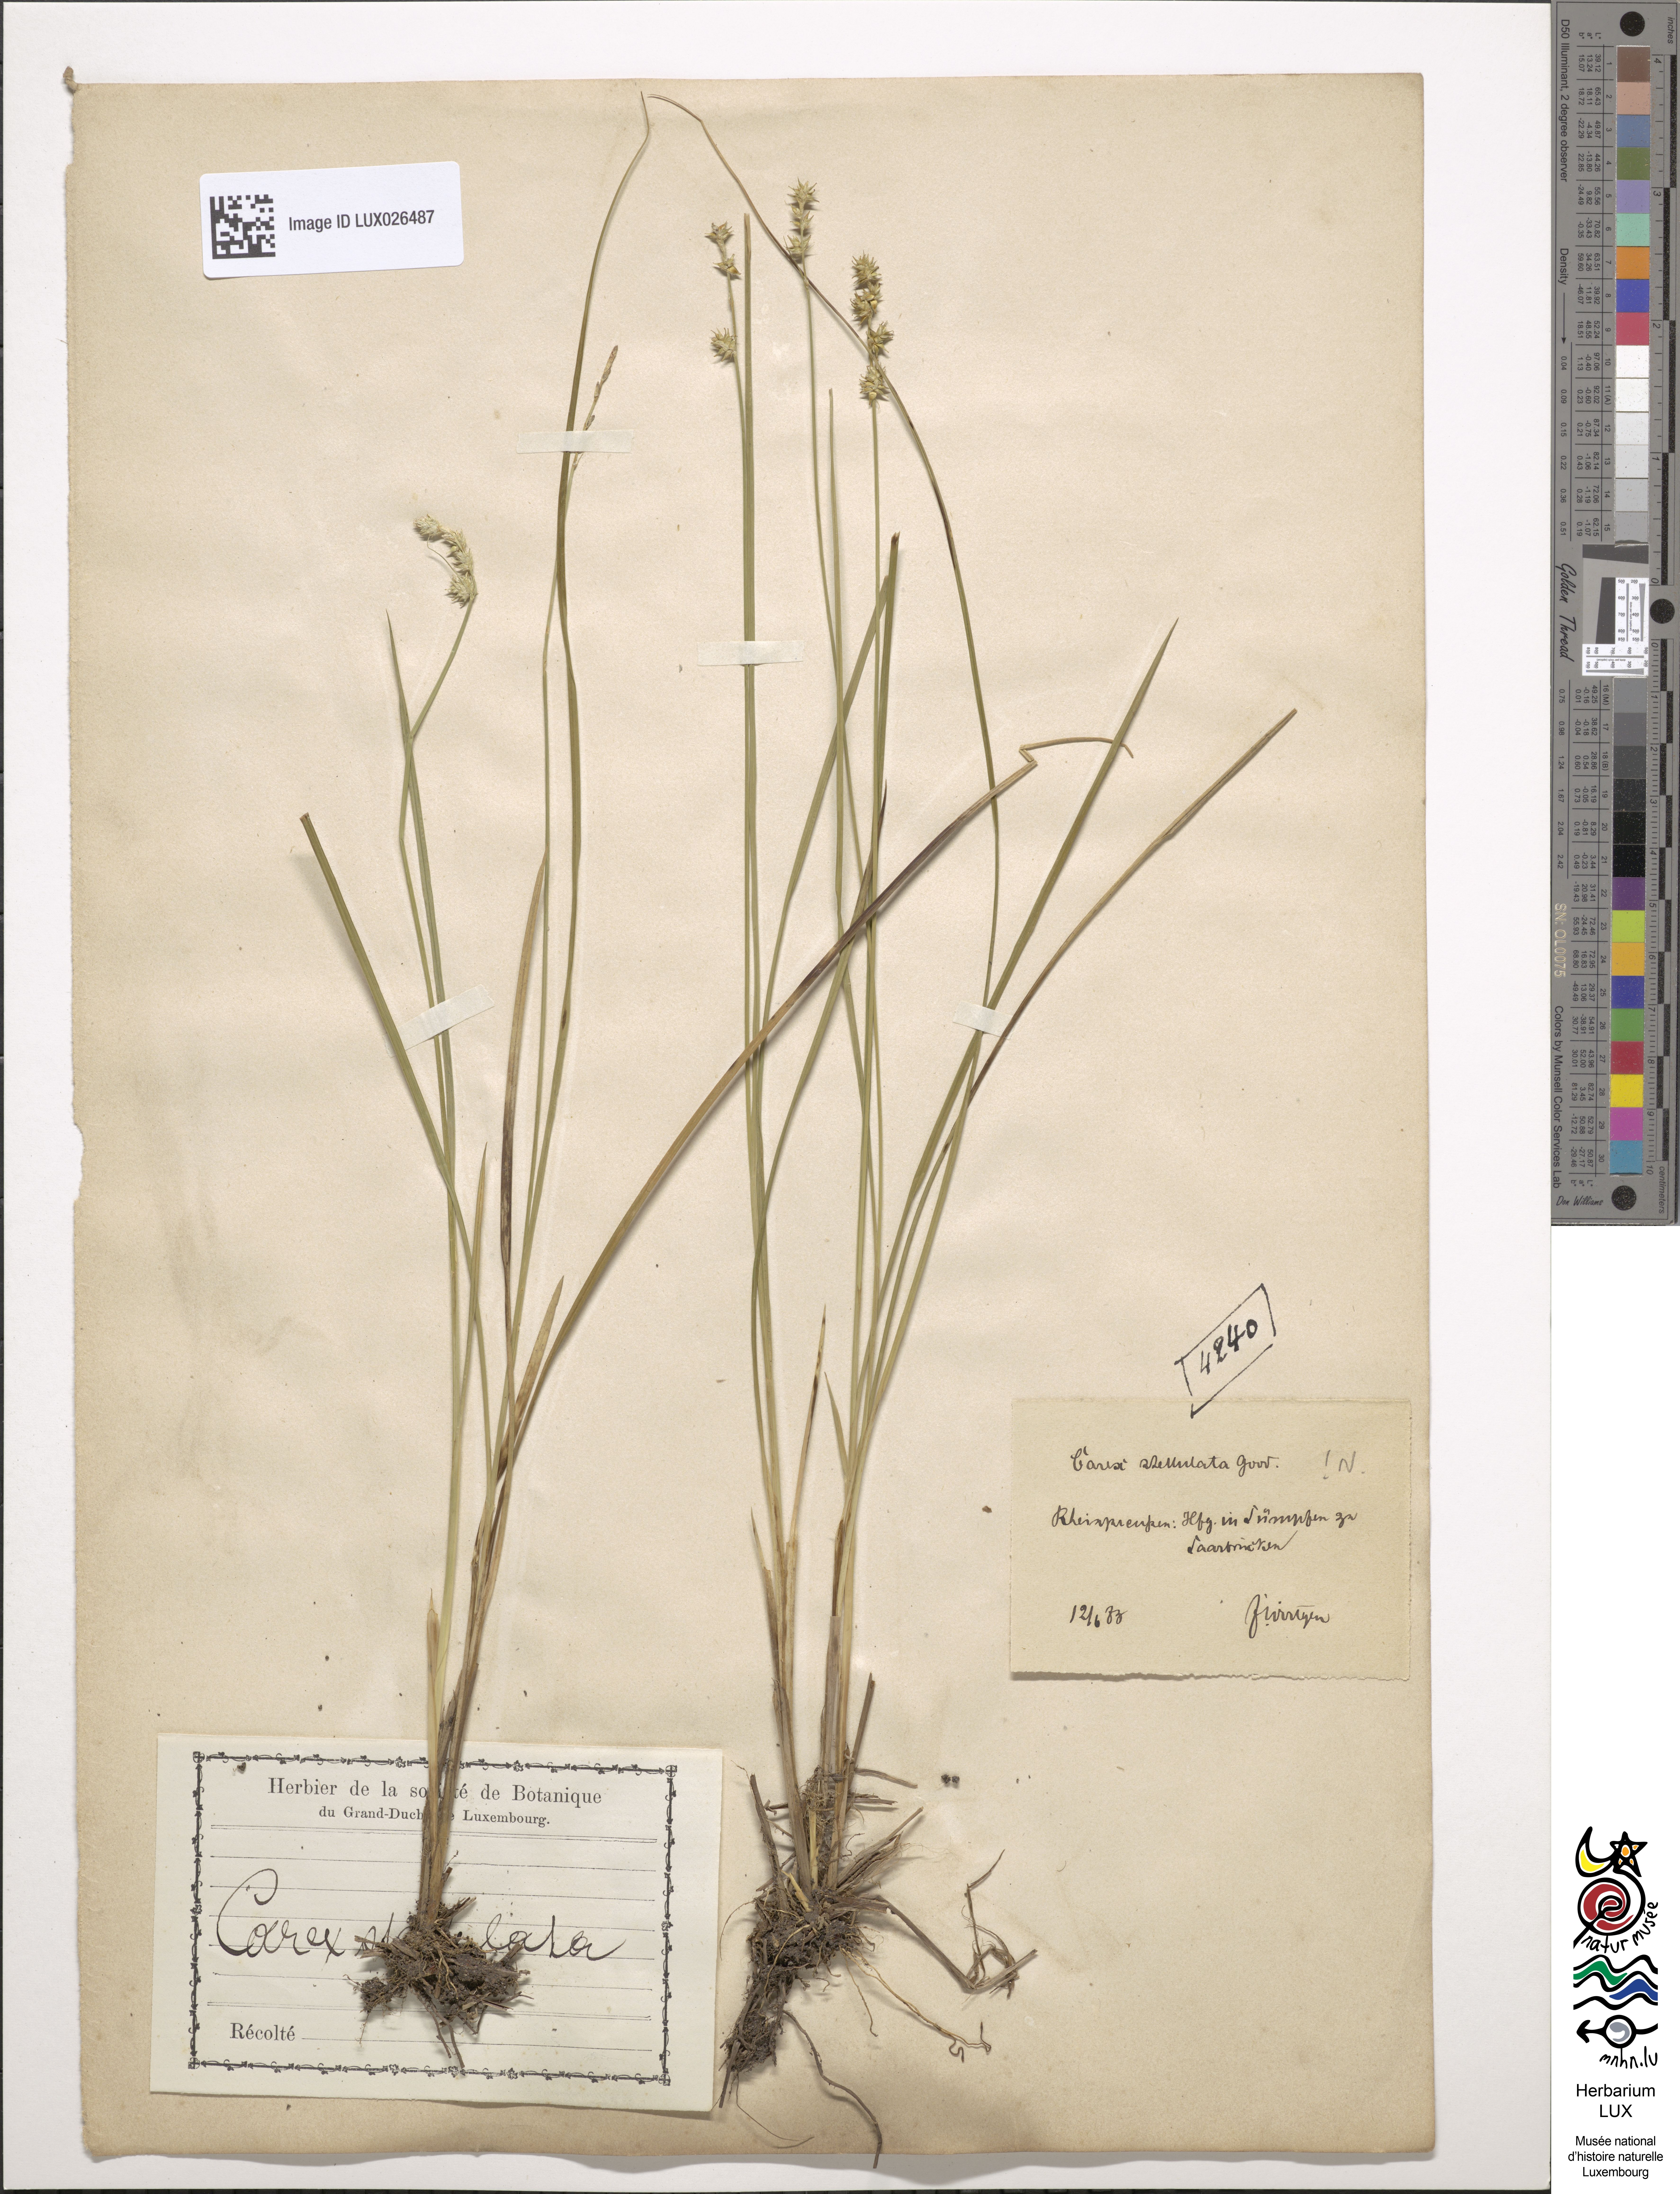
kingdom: Plantae
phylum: Tracheophyta
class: Liliopsida
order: Poales
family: Cyperaceae
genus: Carex
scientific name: Carex echinata
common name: Star sedge
